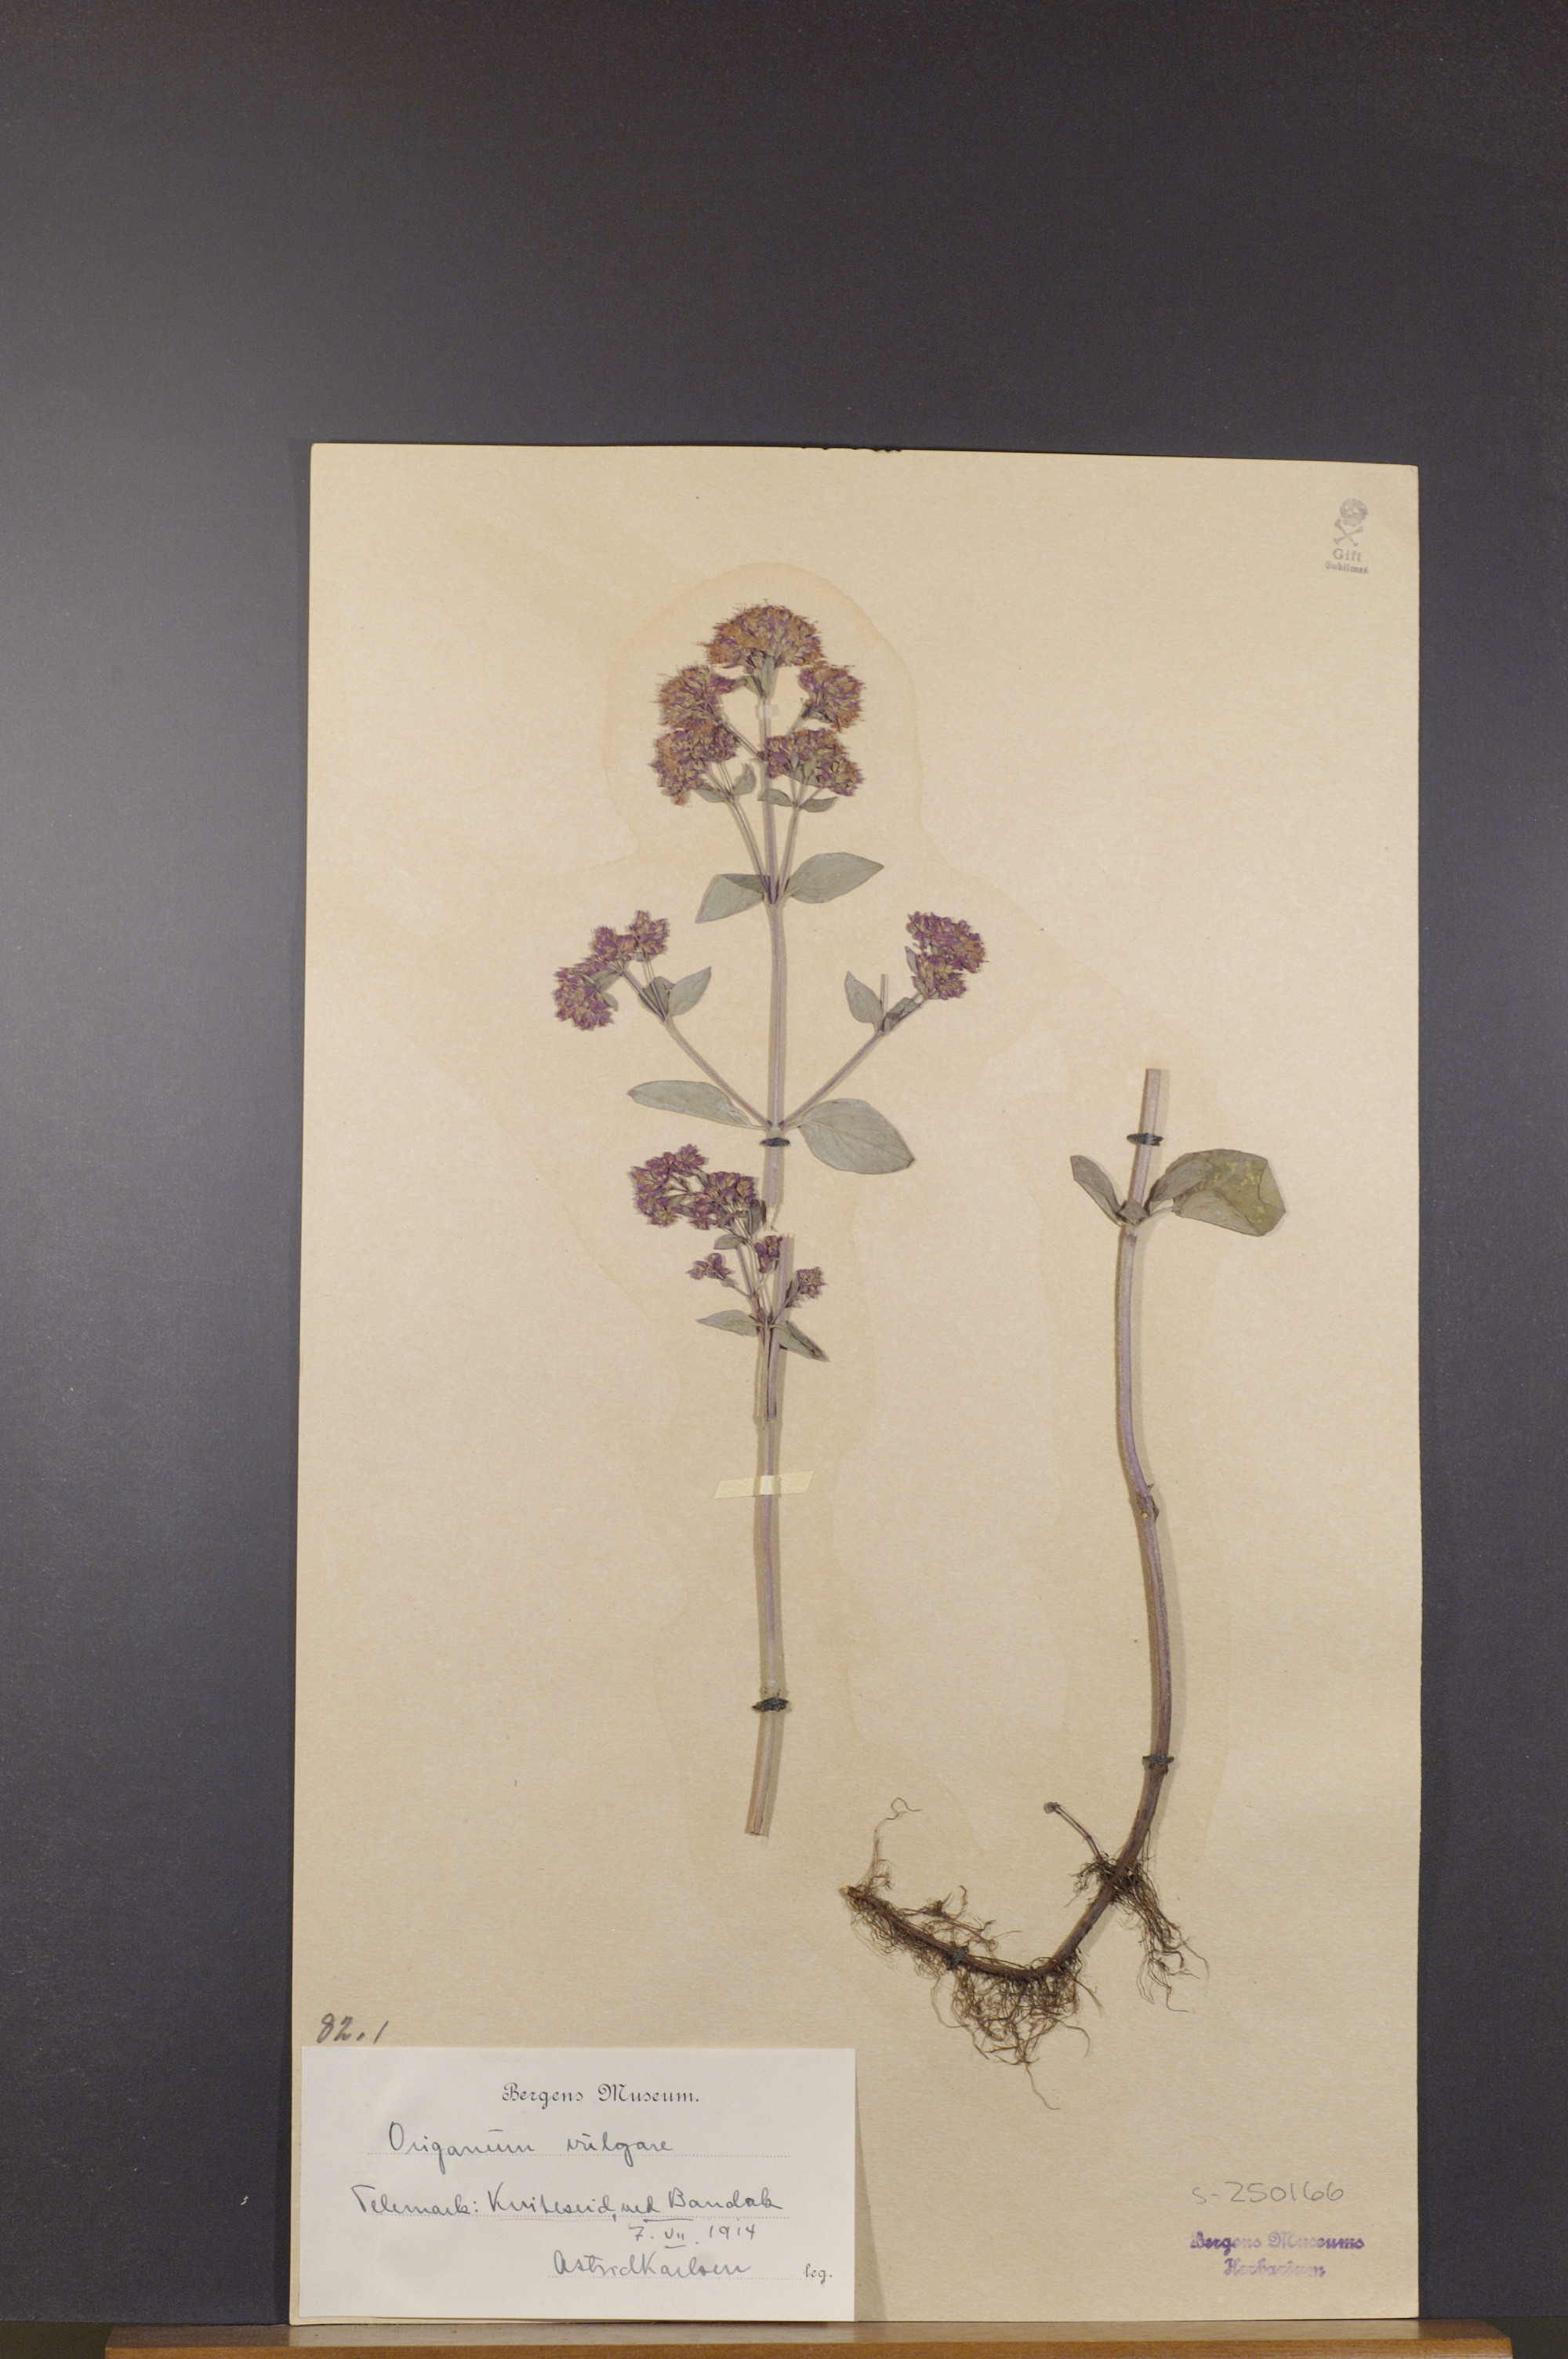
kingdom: Plantae
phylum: Tracheophyta
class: Magnoliopsida
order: Lamiales
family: Lamiaceae
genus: Origanum
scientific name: Origanum vulgare
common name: Wild marjoram
